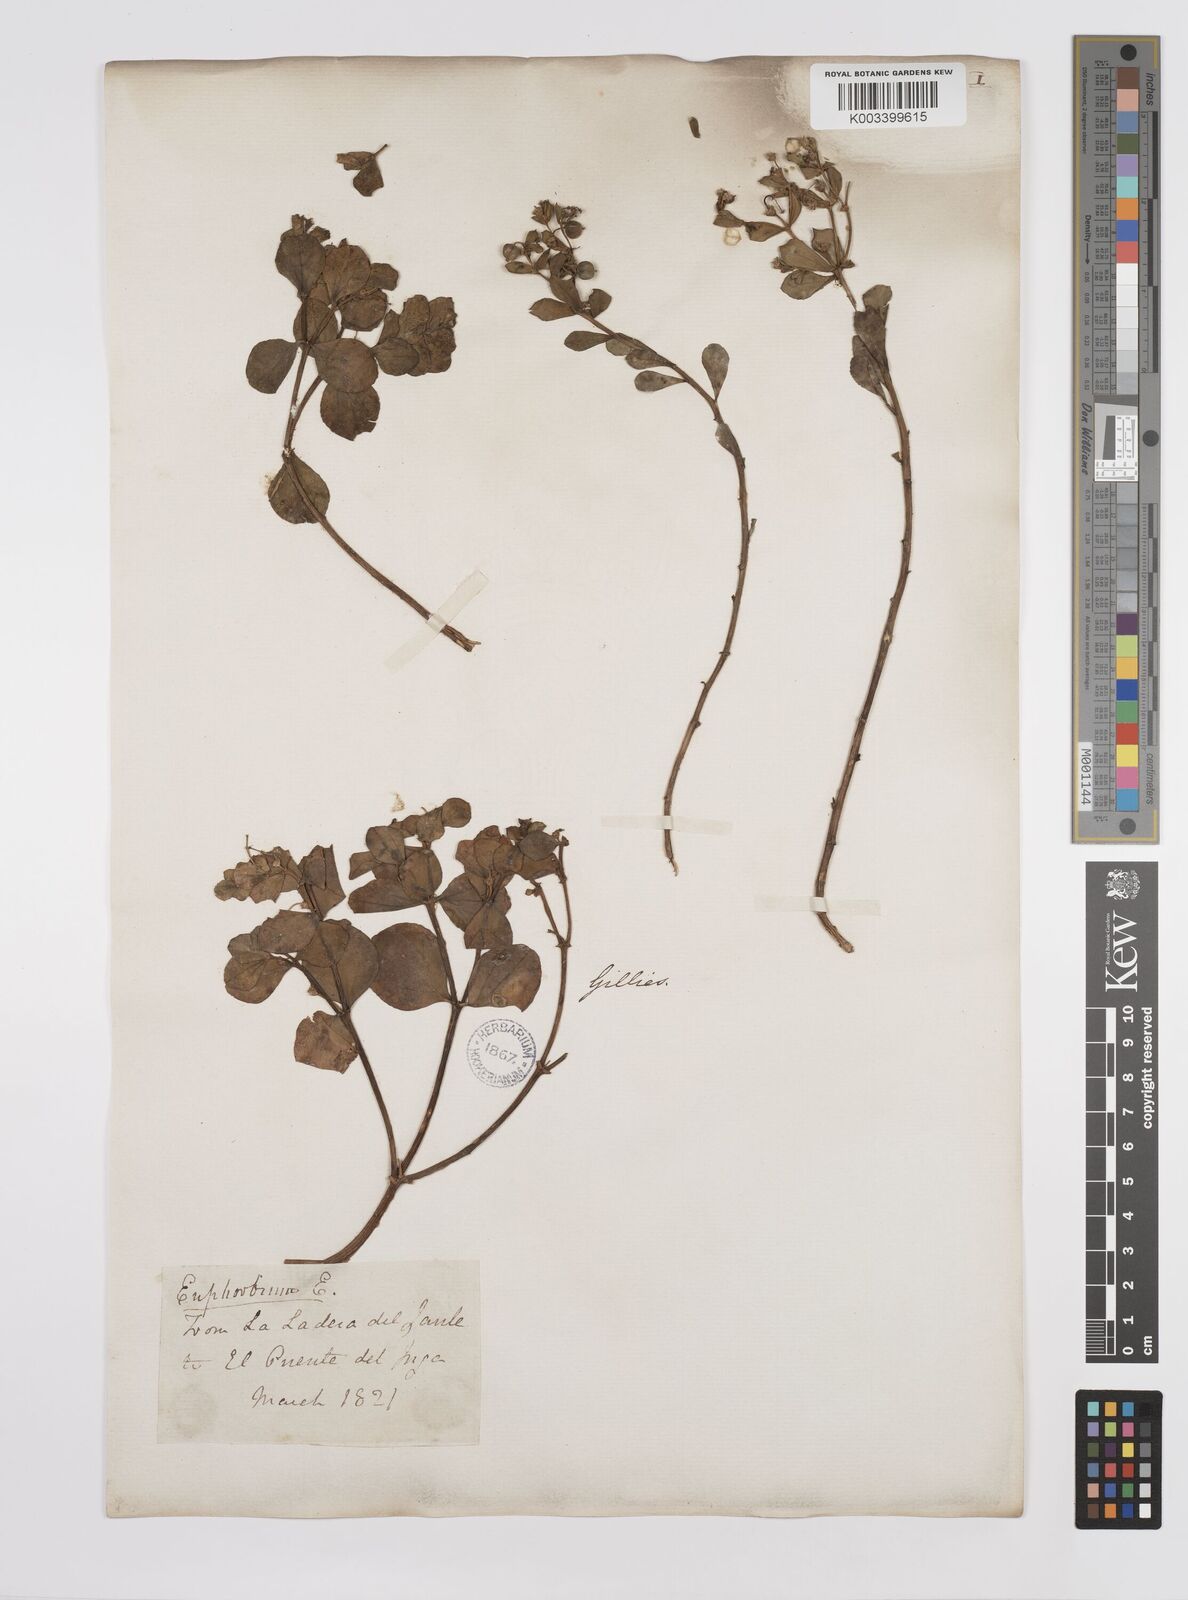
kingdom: Plantae
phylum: Tracheophyta
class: Magnoliopsida
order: Malpighiales
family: Euphorbiaceae
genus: Euphorbia
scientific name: Euphorbia portulacoides
